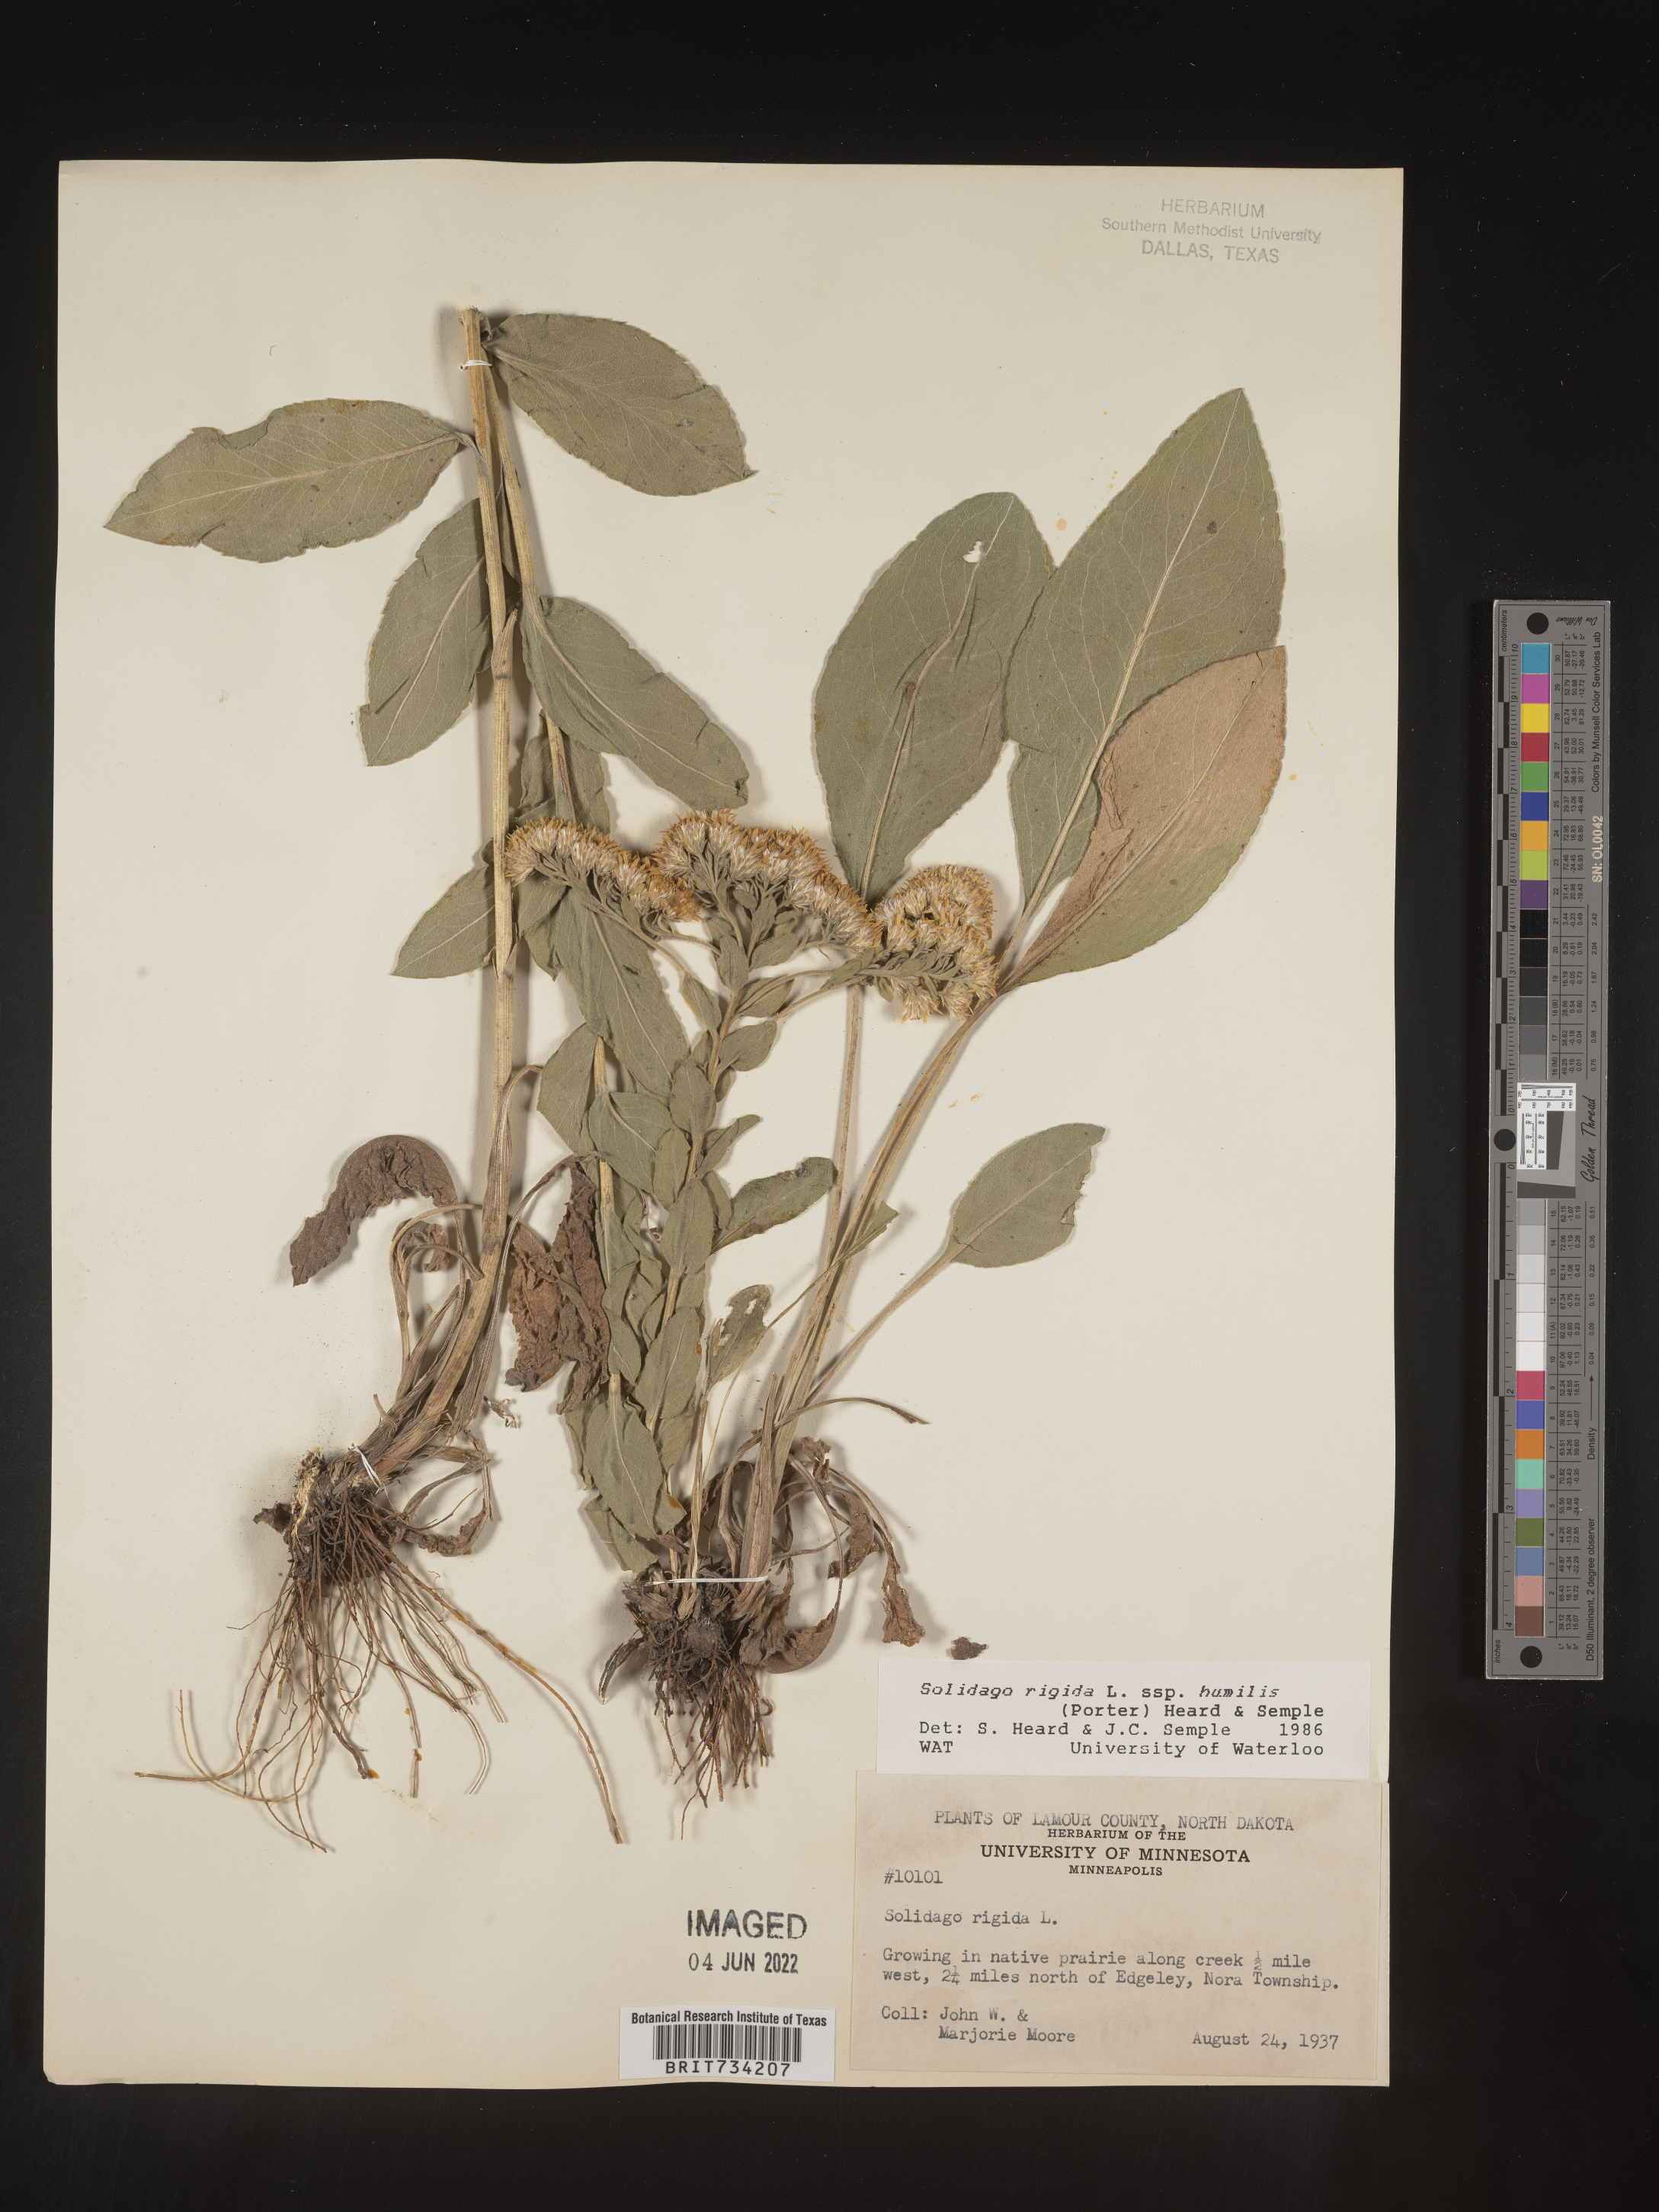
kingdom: Plantae
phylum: Tracheophyta
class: Magnoliopsida
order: Asterales
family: Asteraceae
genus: Solidago
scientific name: Solidago rigida
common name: Rigid goldenrod
